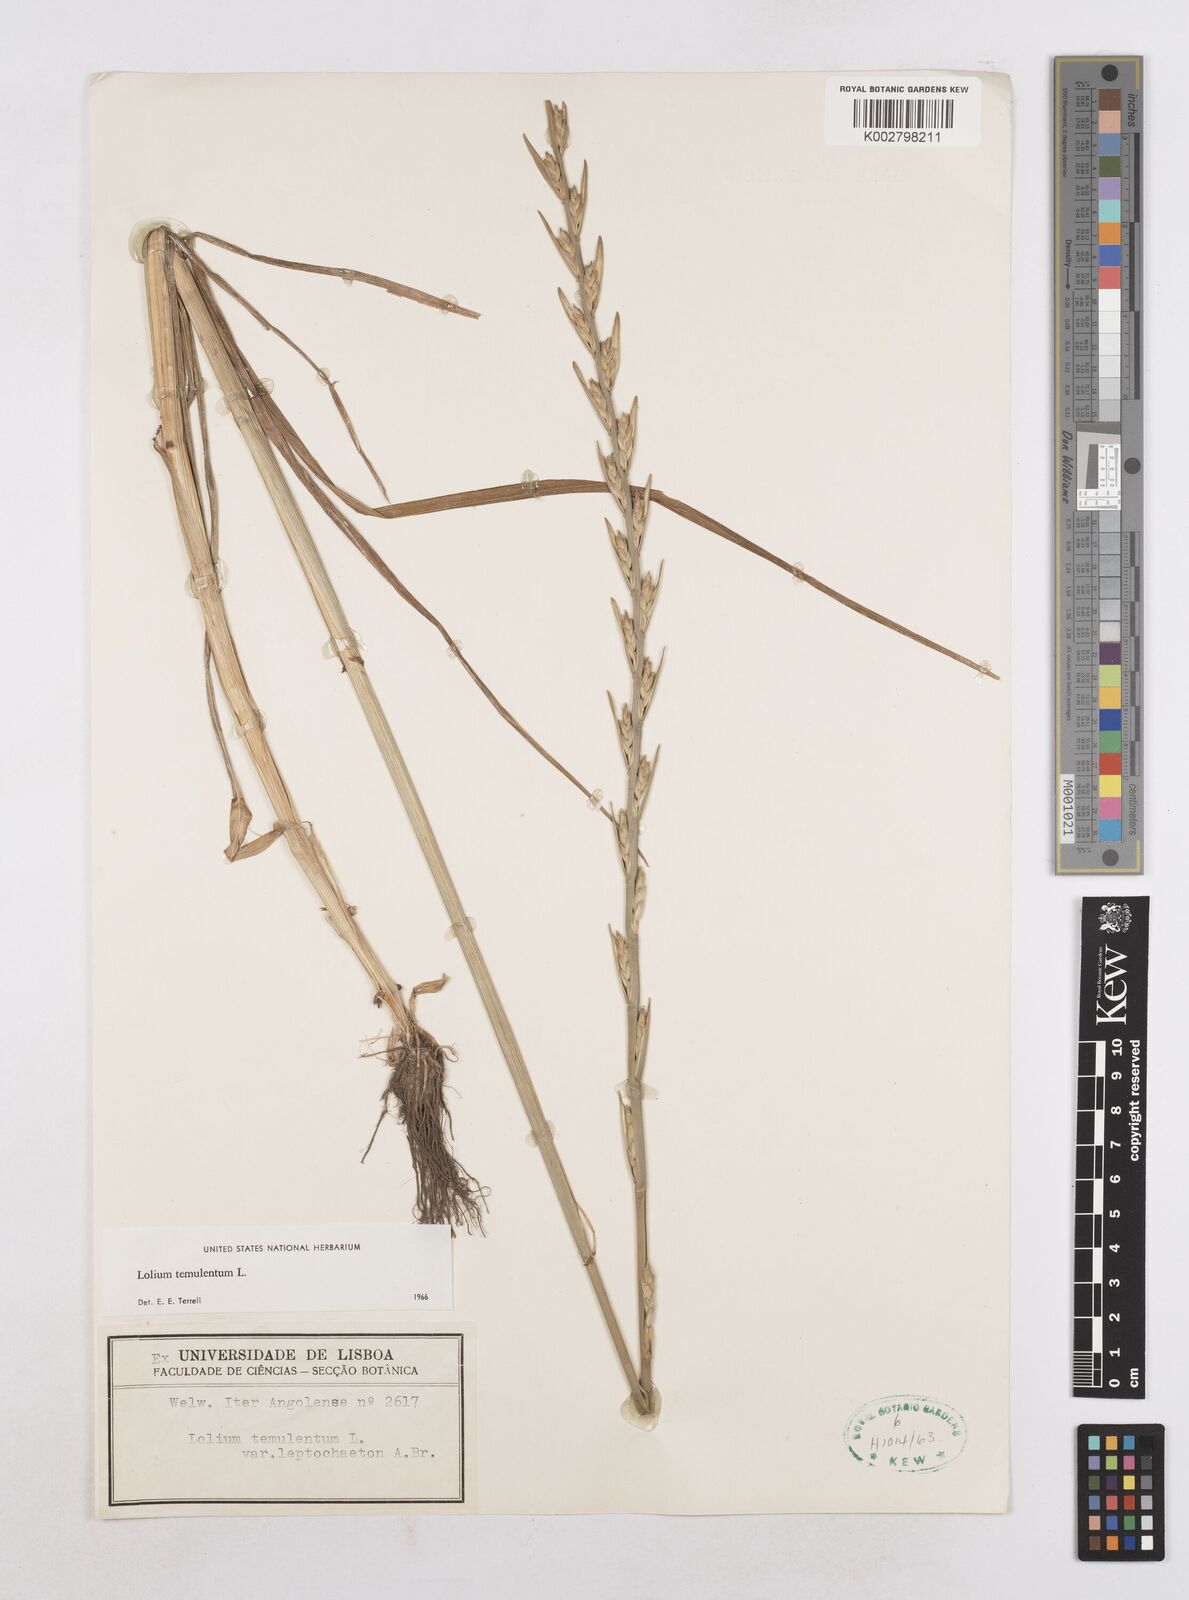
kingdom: Plantae
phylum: Tracheophyta
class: Liliopsida
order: Poales
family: Poaceae
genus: Lolium
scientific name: Lolium temulentum
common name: Darnel
